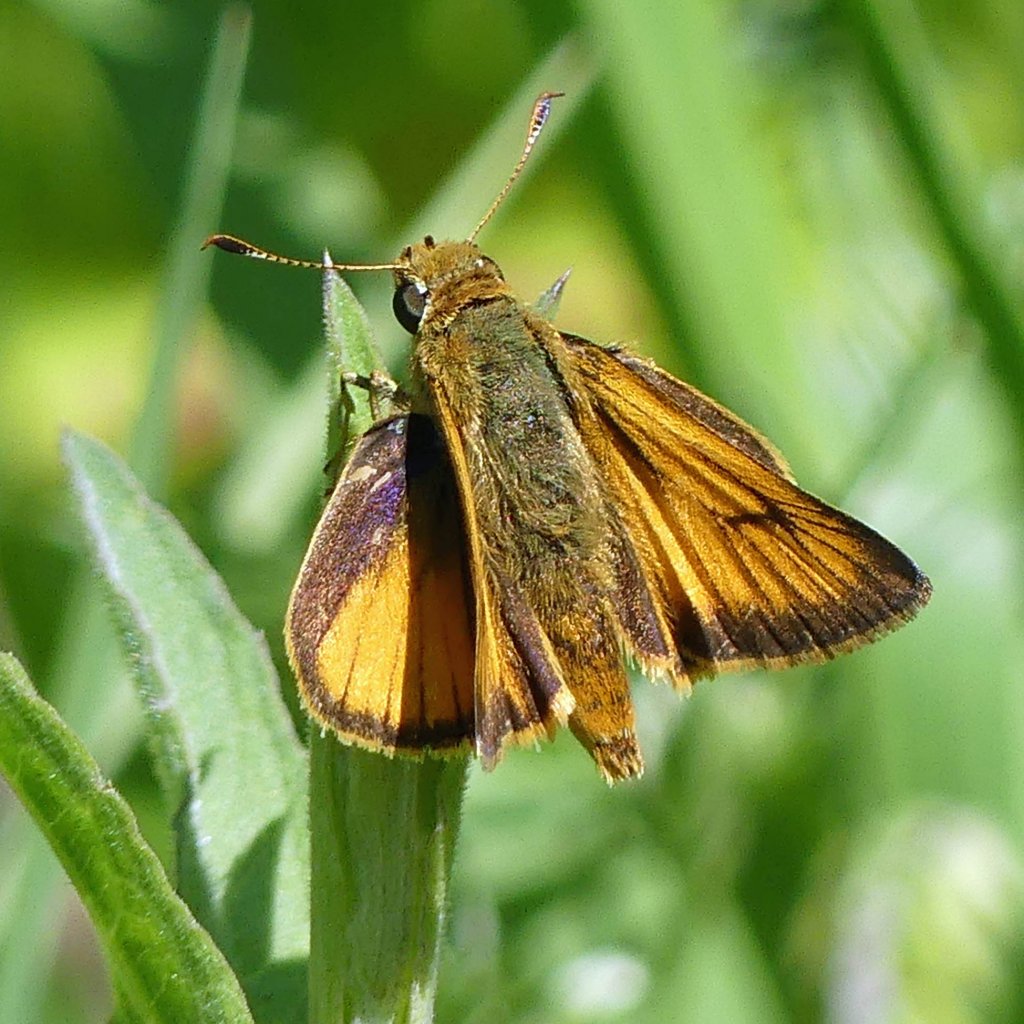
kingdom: Animalia
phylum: Arthropoda
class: Insecta
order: Lepidoptera
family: Hesperiidae
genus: Atrytone
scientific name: Atrytone delaware
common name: Delaware Skipper
